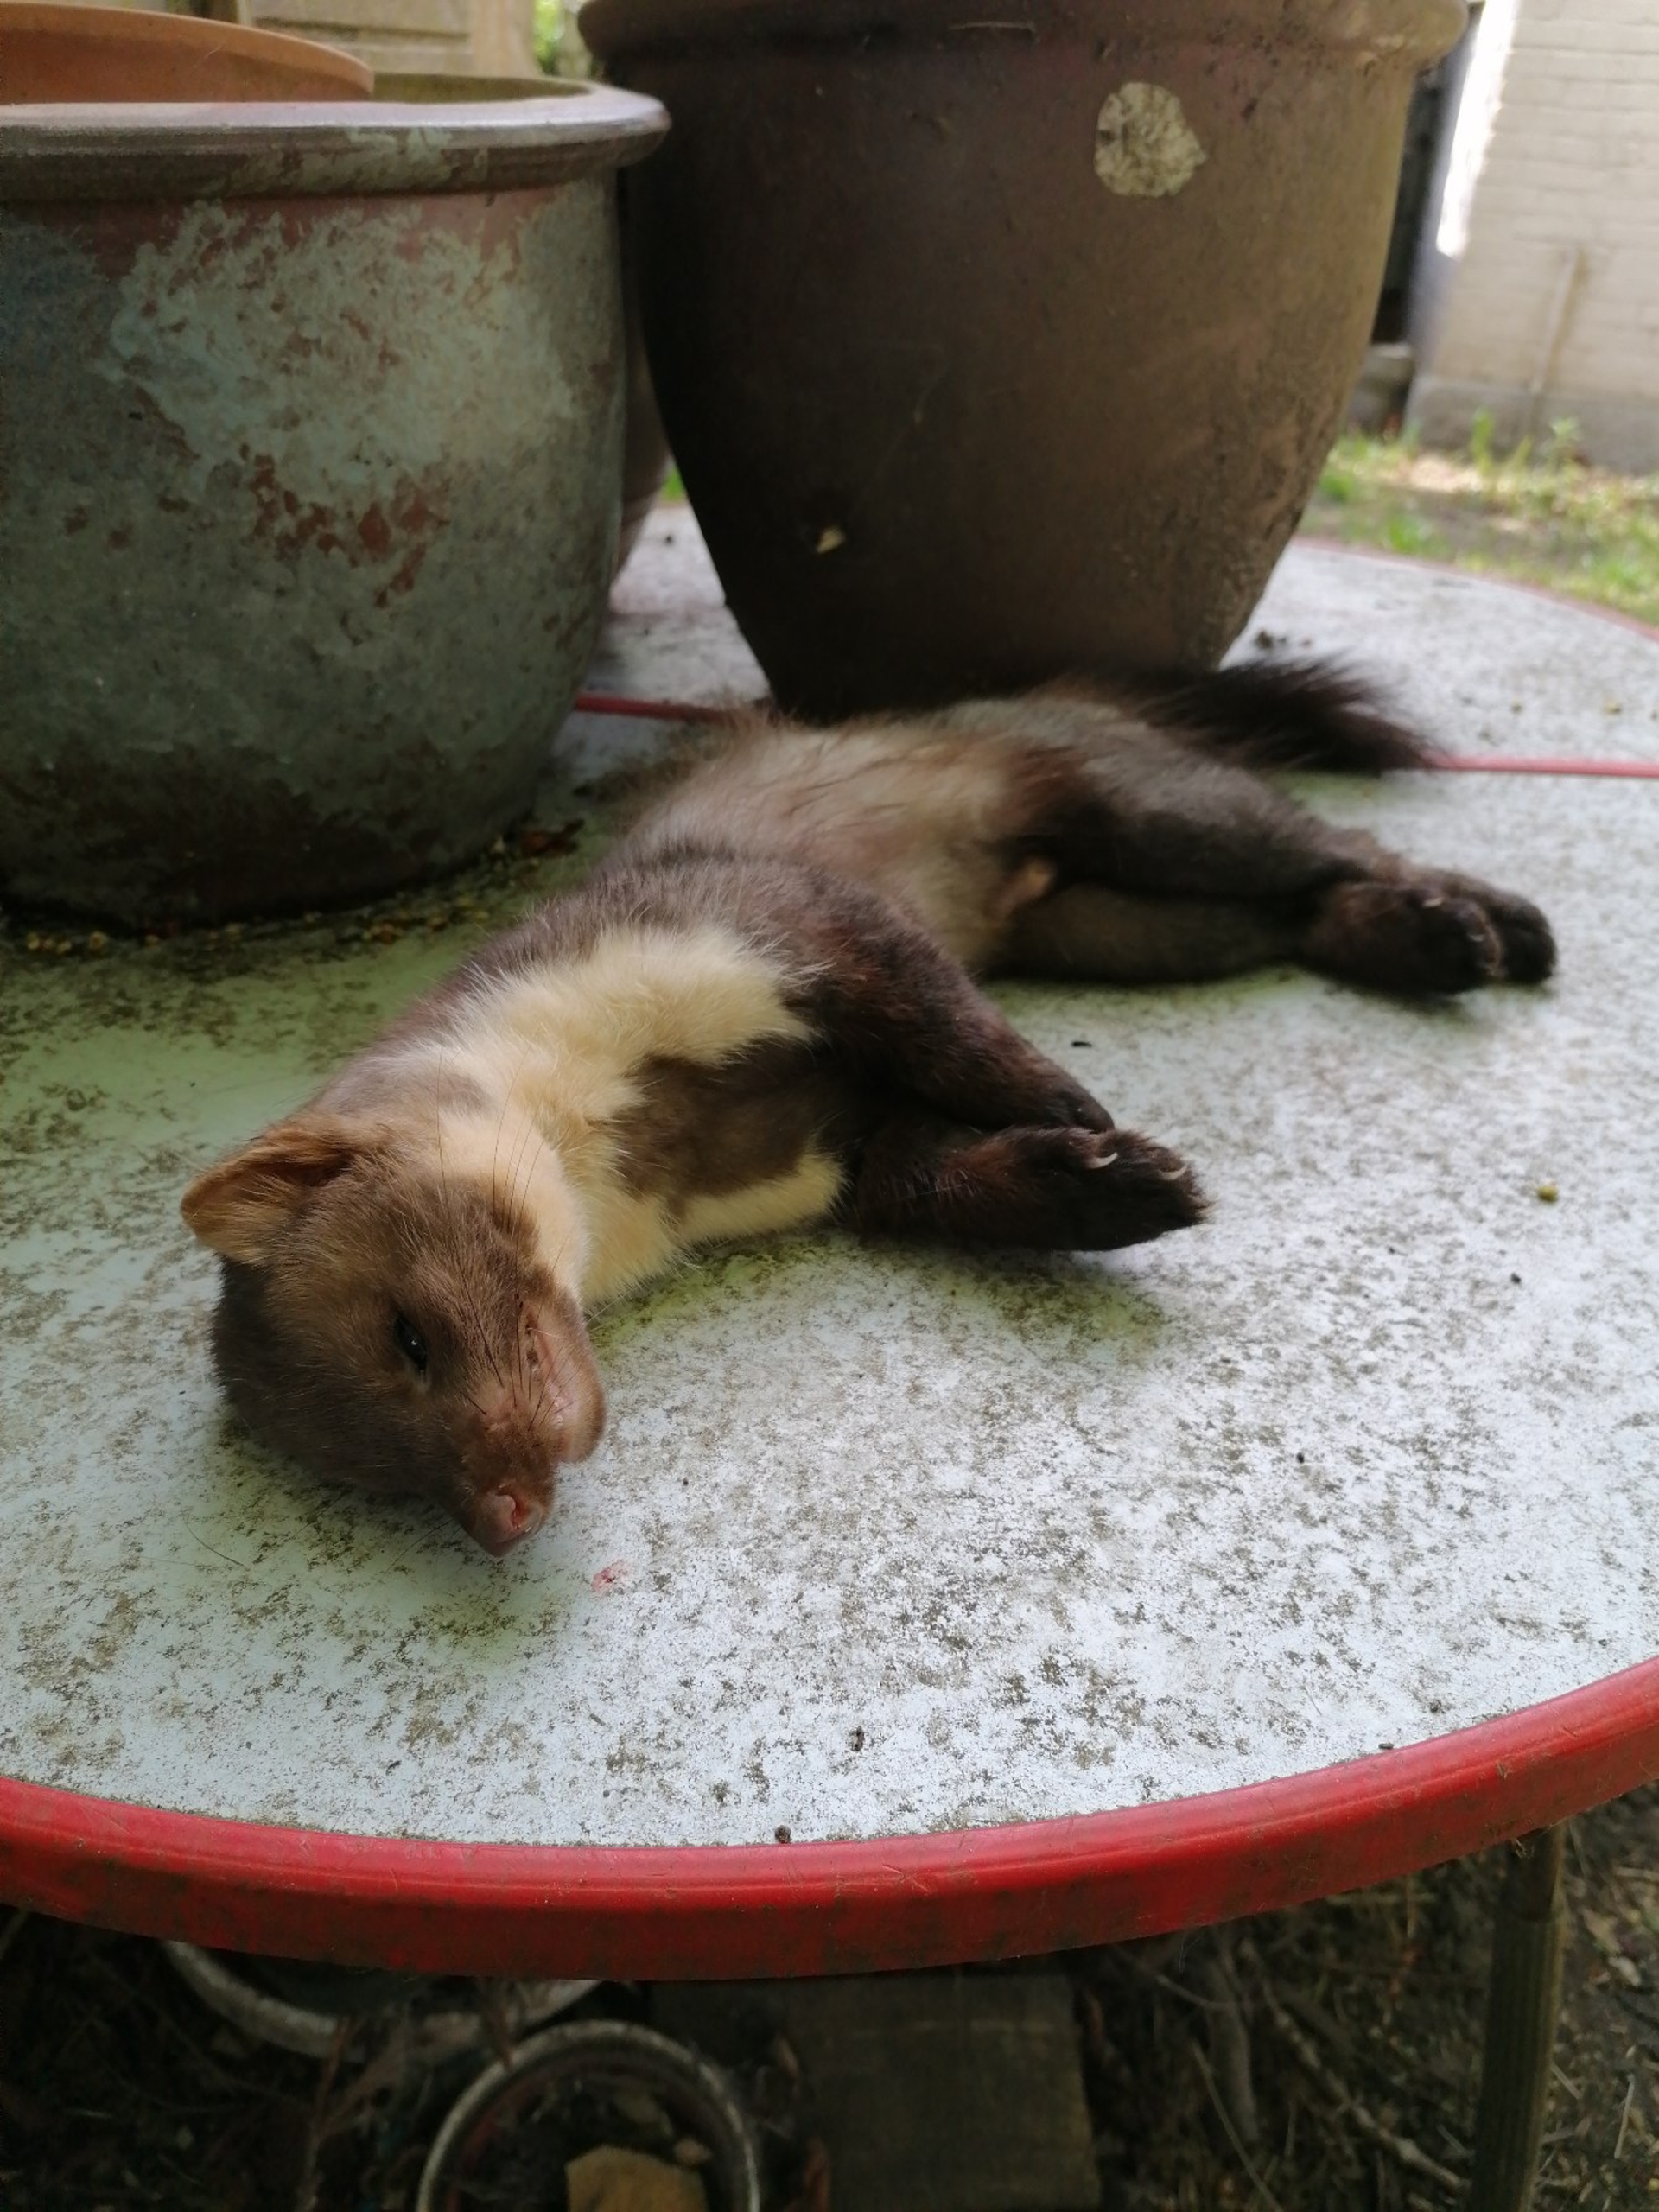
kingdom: Animalia
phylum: Chordata
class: Mammalia
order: Carnivora
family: Mustelidae
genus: Martes
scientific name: Martes martes
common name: Skovmår
